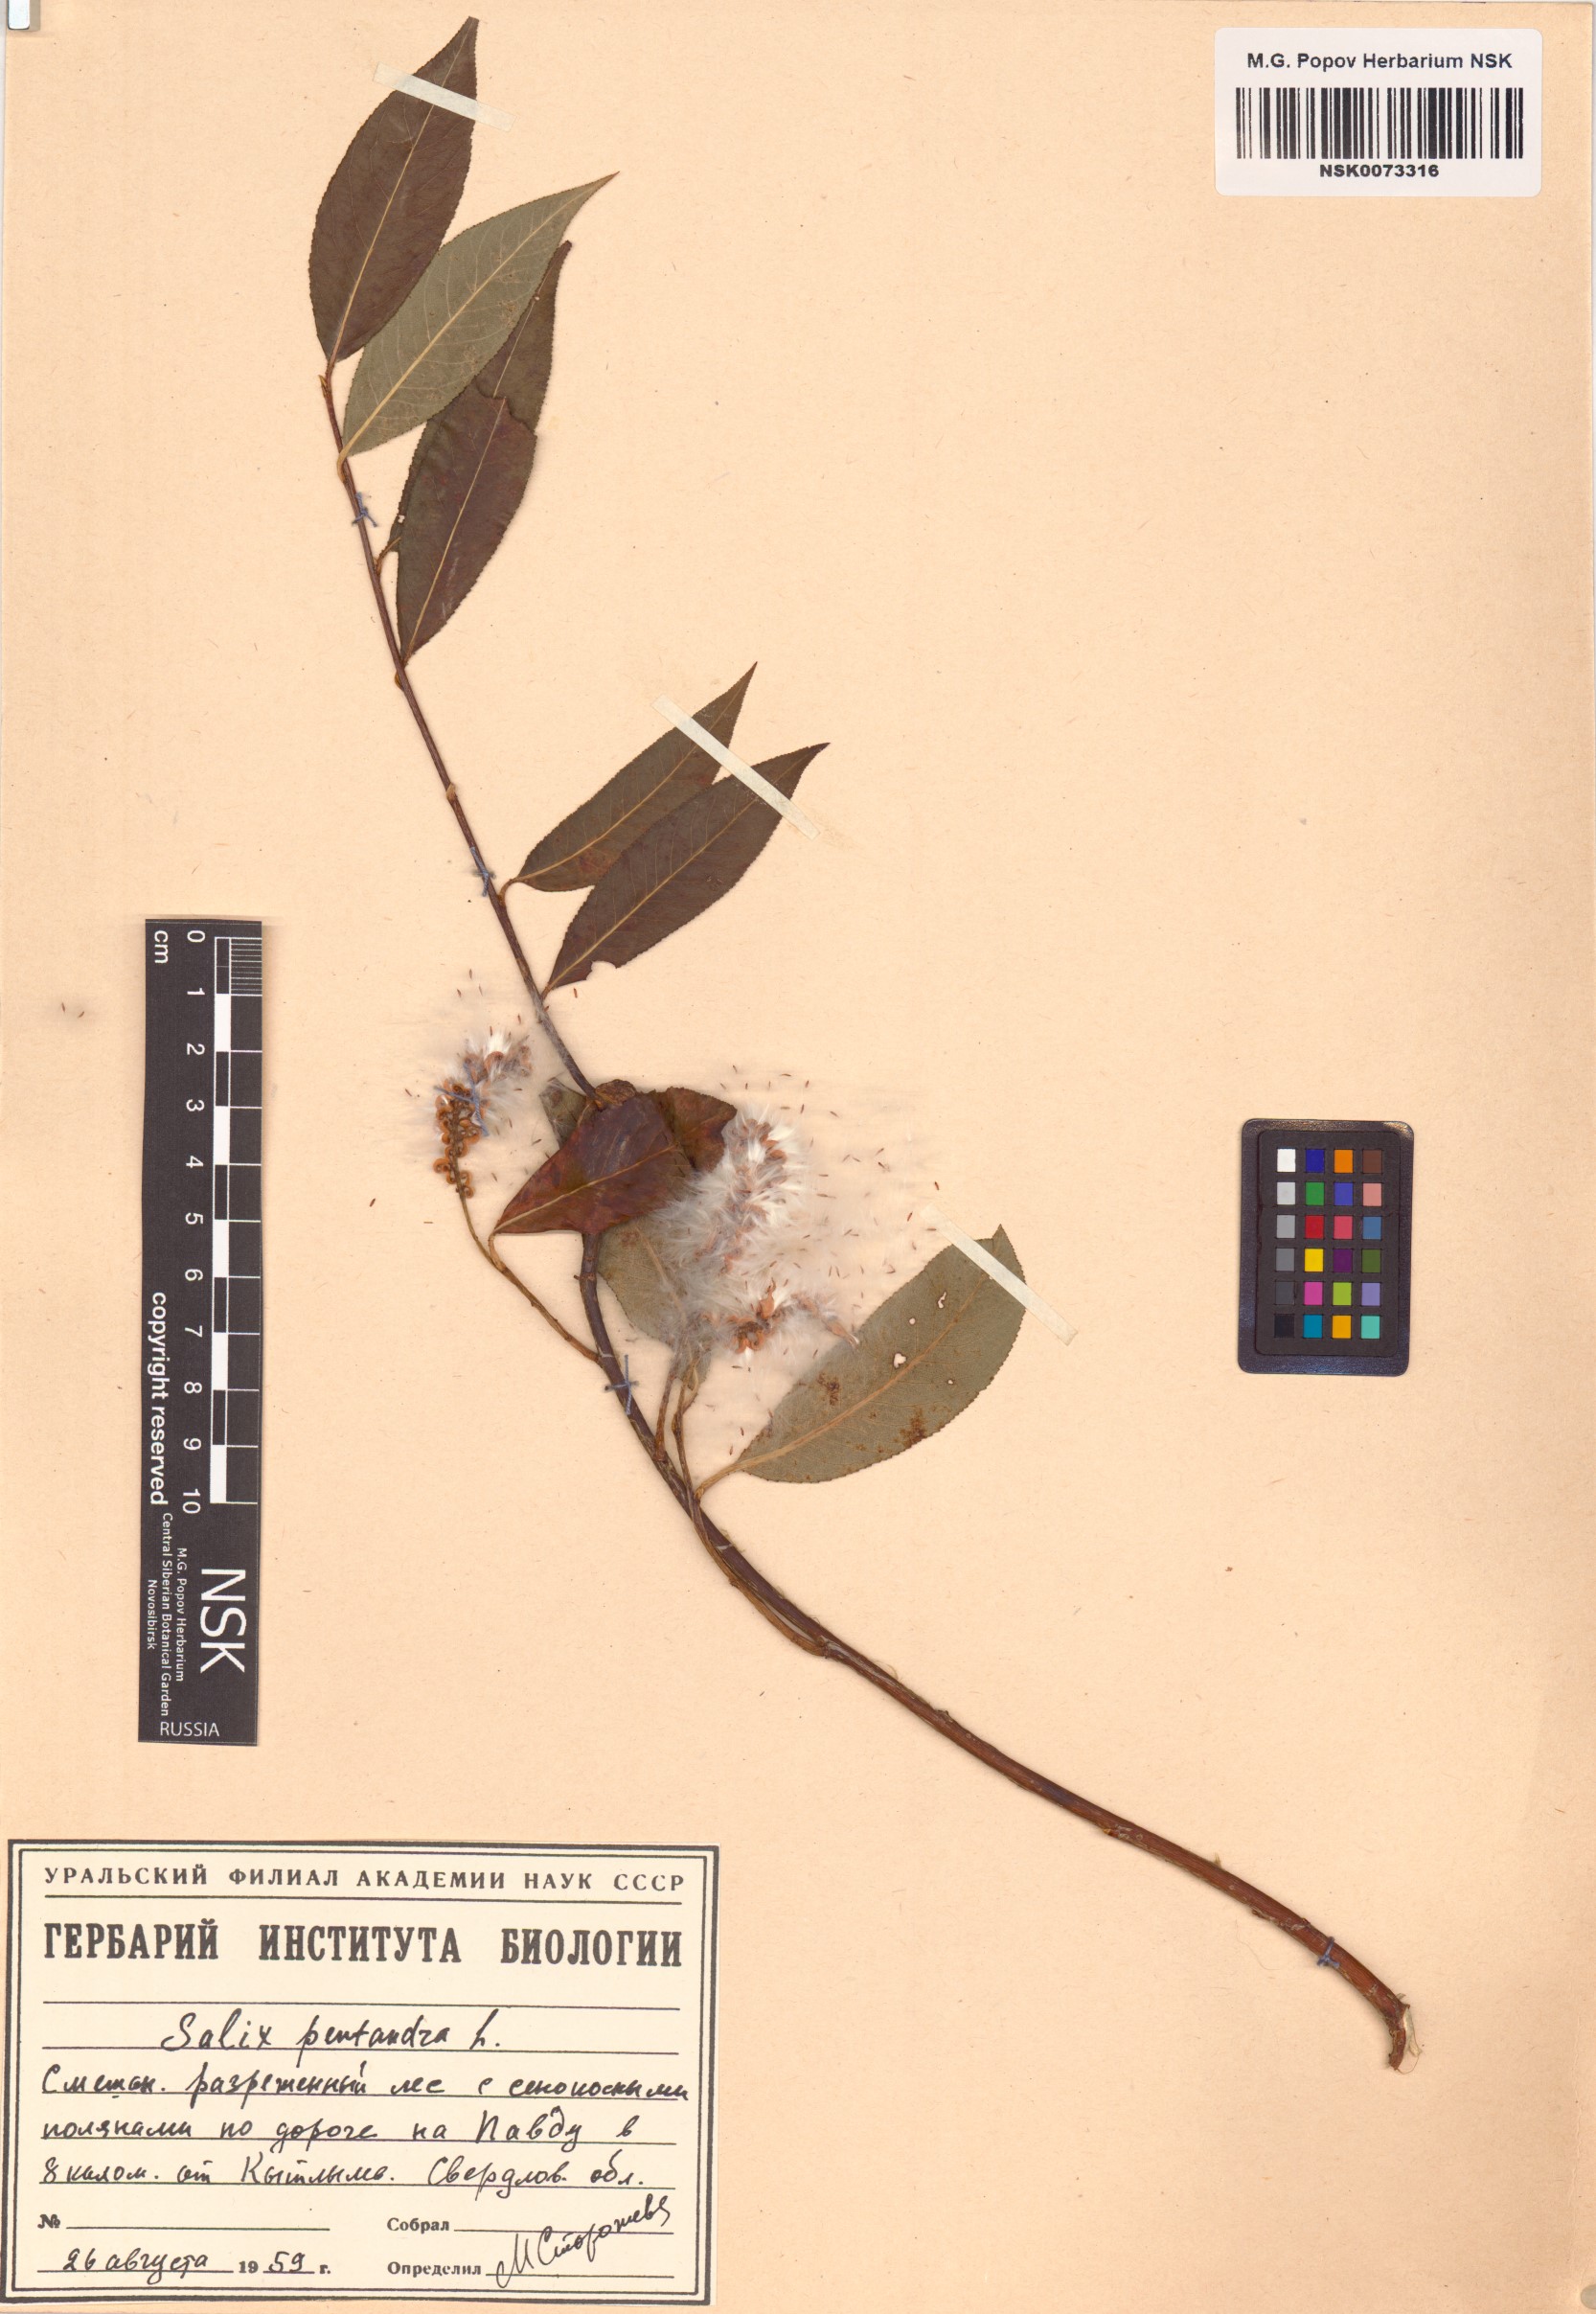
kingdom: Plantae
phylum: Tracheophyta
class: Magnoliopsida
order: Malpighiales
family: Salicaceae
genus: Salix
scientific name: Salix pentandra
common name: Bay willow
